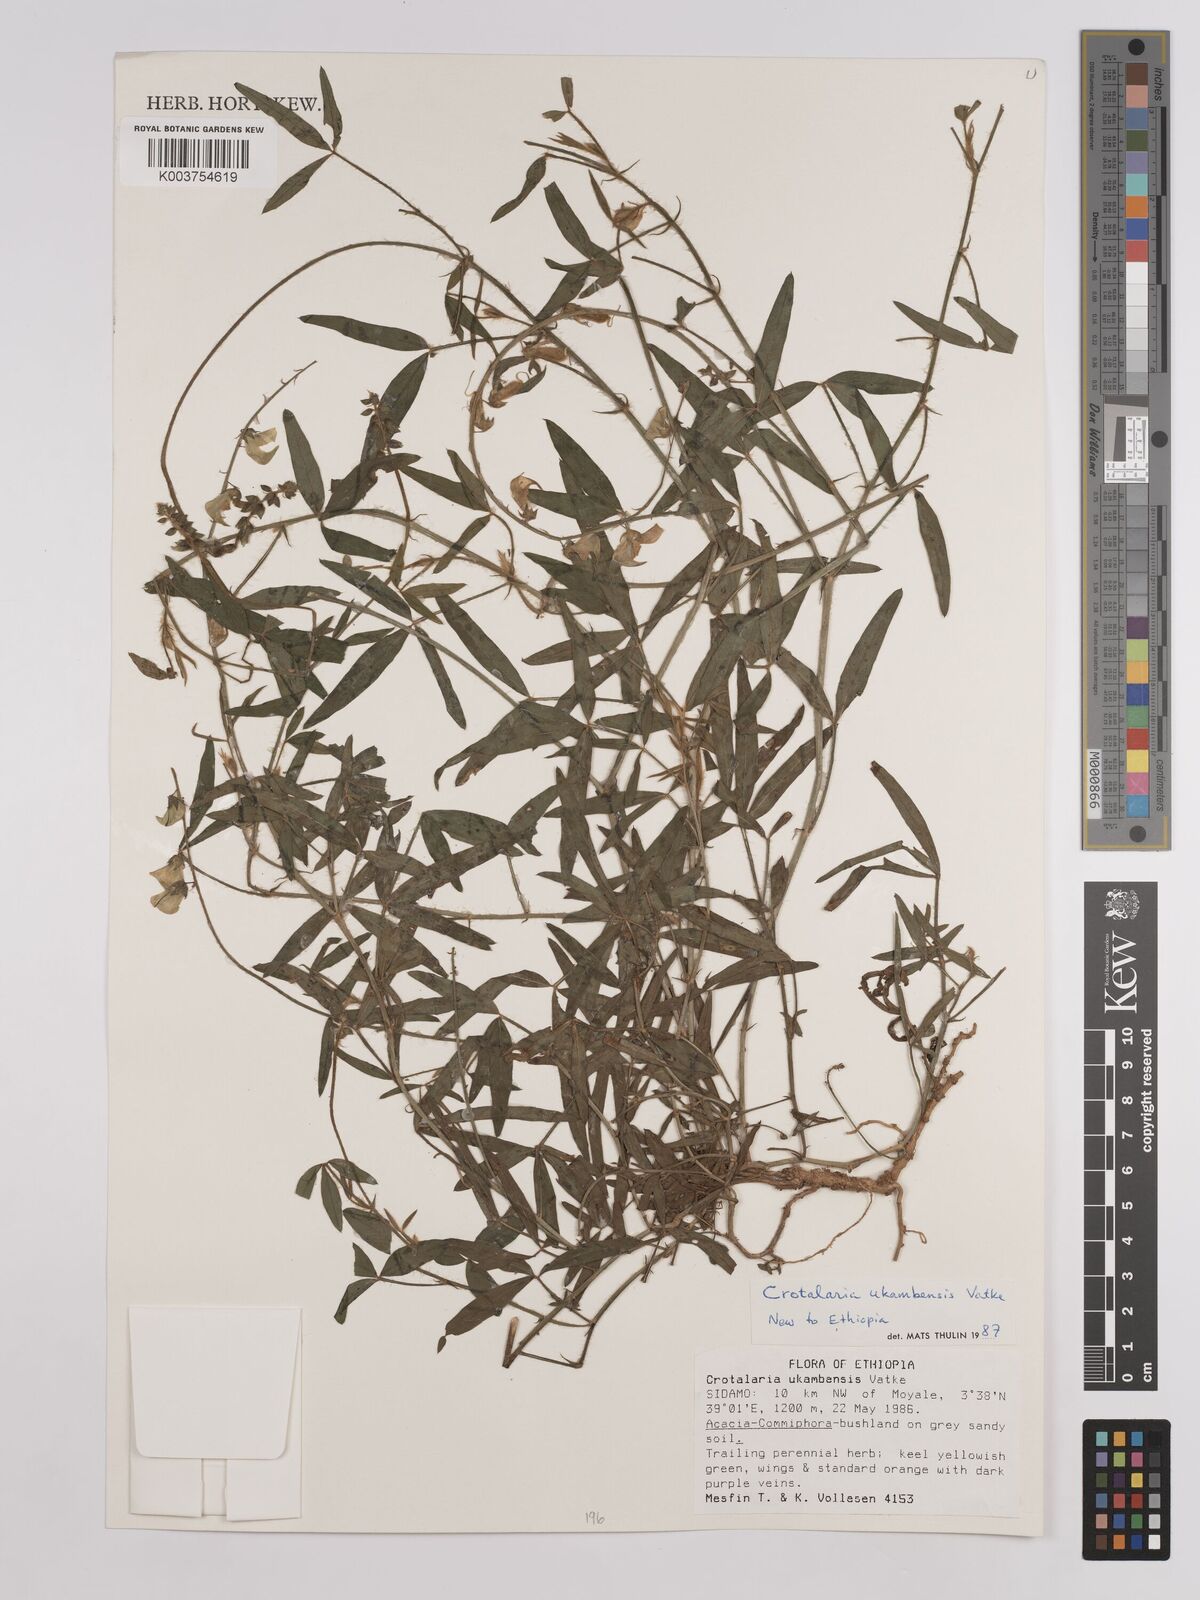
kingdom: Plantae
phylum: Tracheophyta
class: Magnoliopsida
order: Fabales
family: Fabaceae
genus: Crotalaria
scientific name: Crotalaria ukambensis
